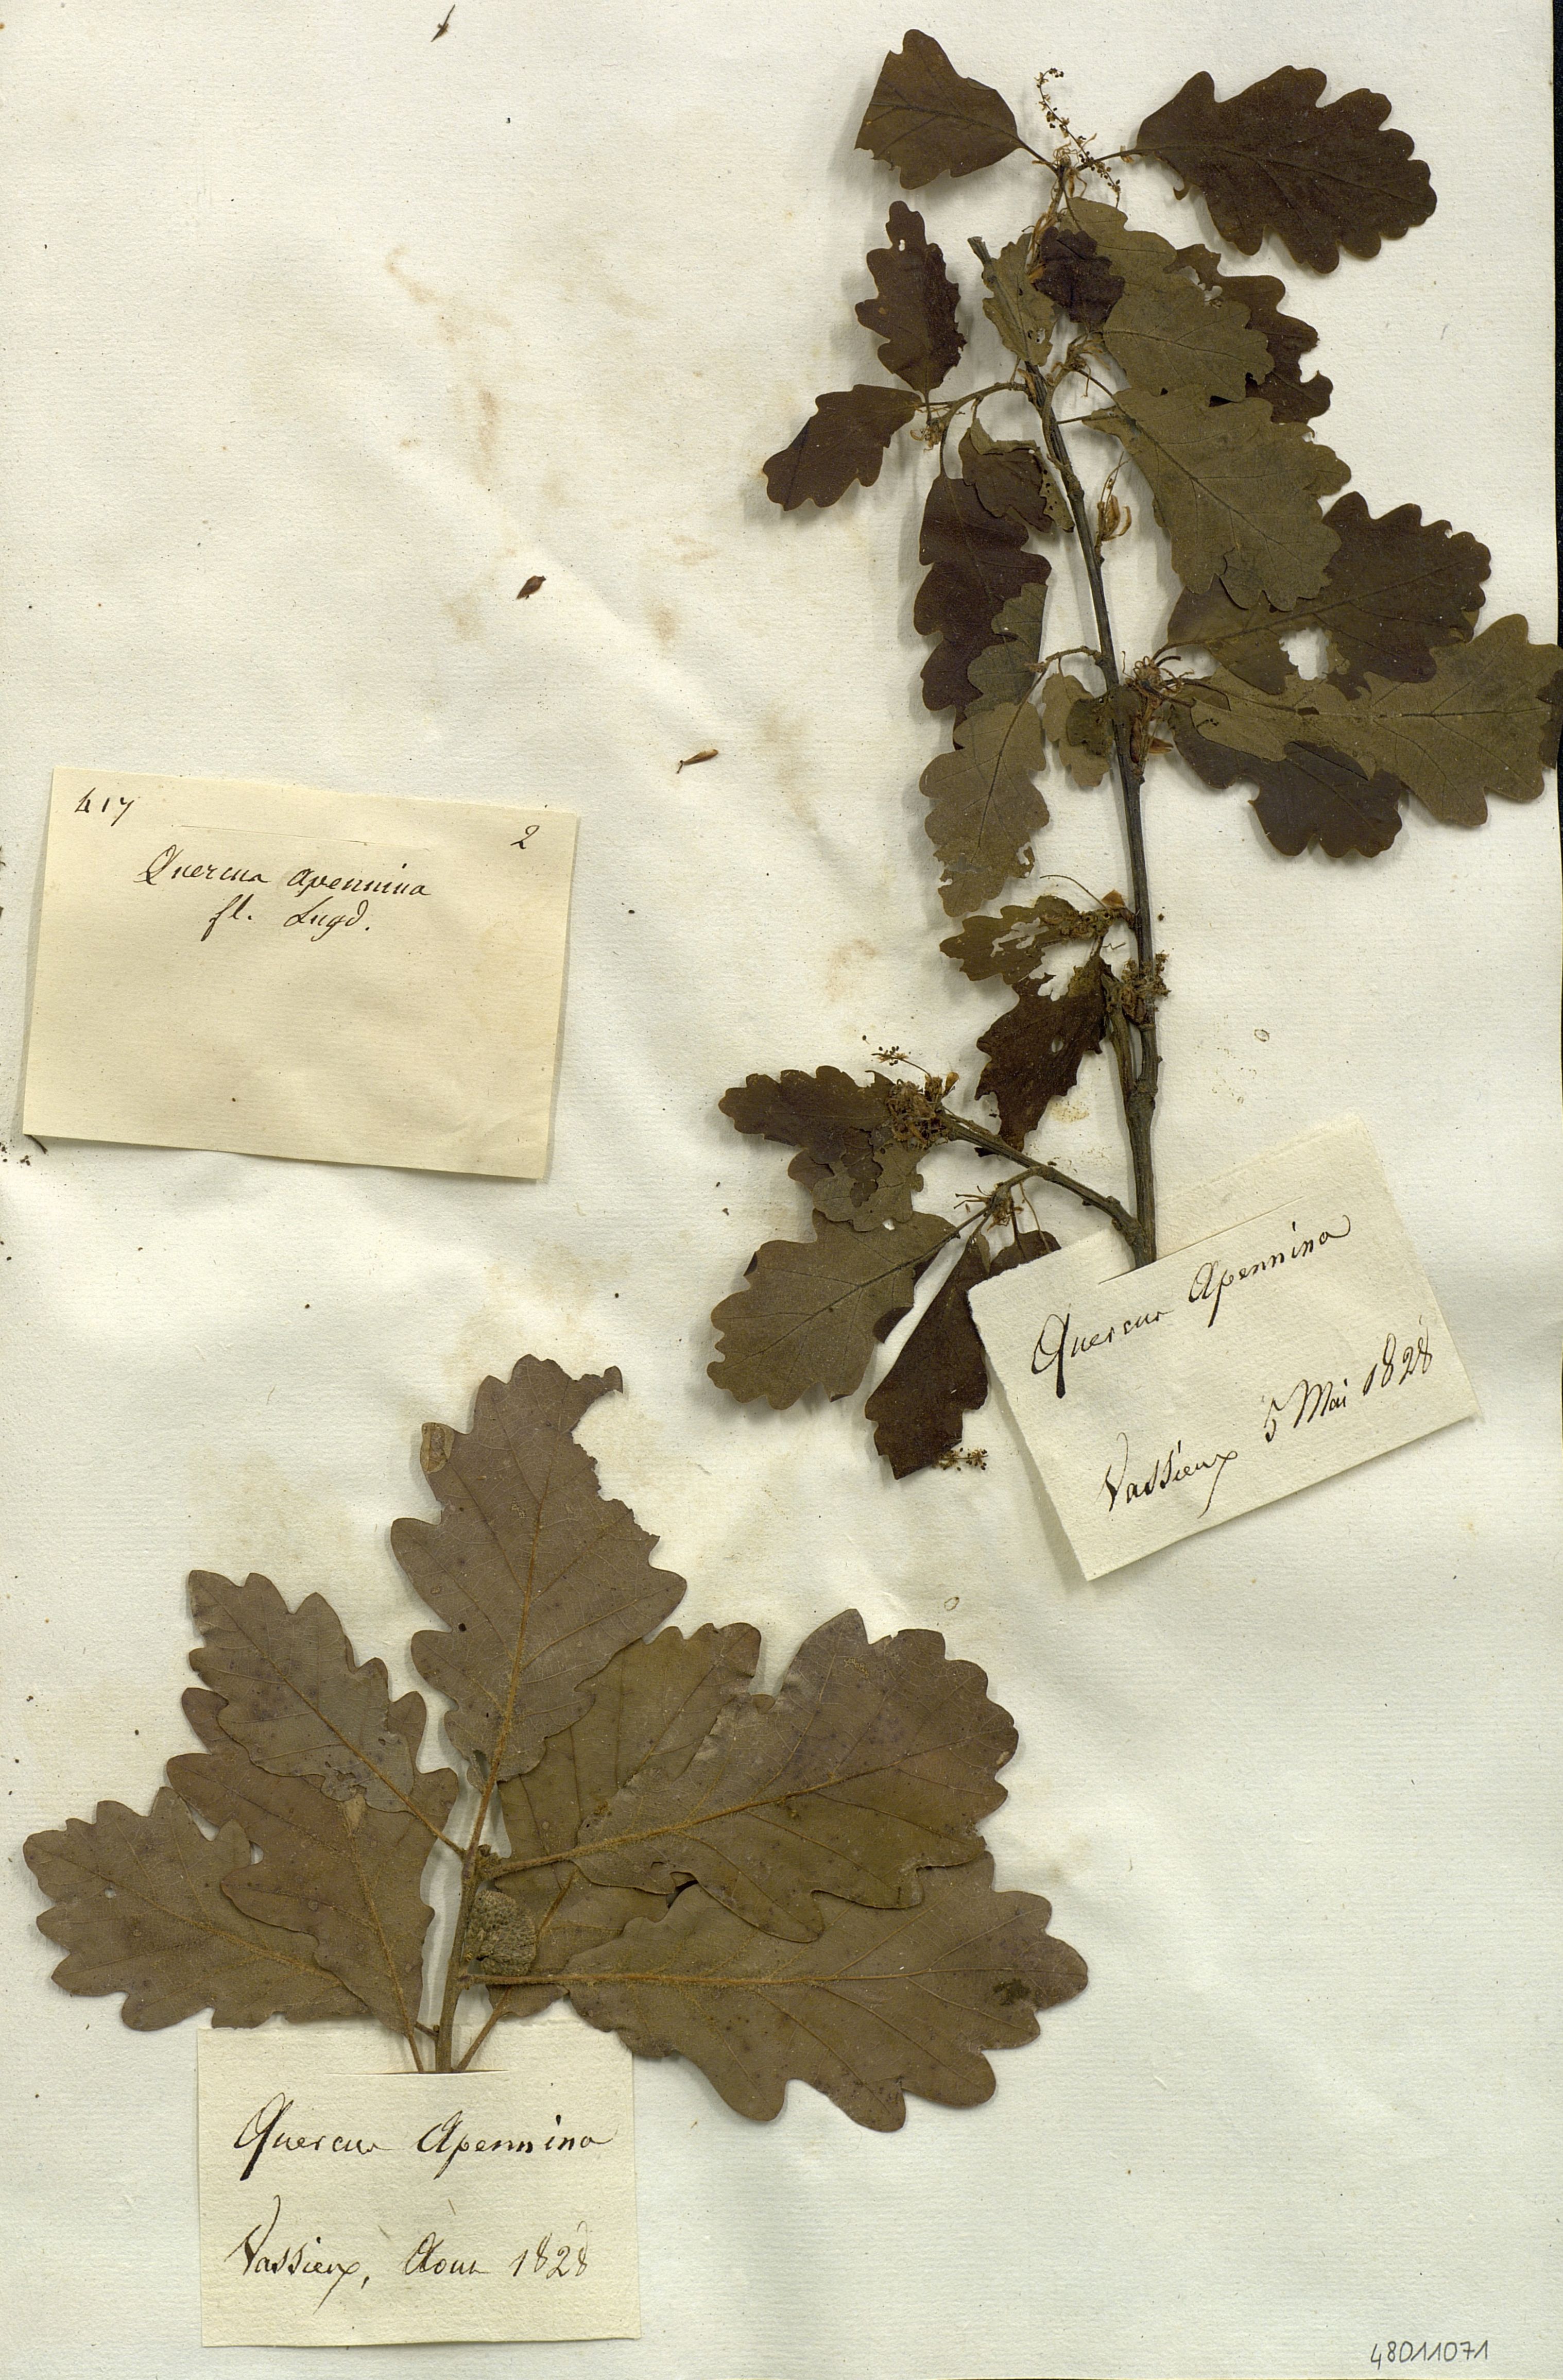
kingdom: Plantae
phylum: Tracheophyta
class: Magnoliopsida
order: Fagales
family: Fagaceae
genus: Quercus
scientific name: Quercus conferta
